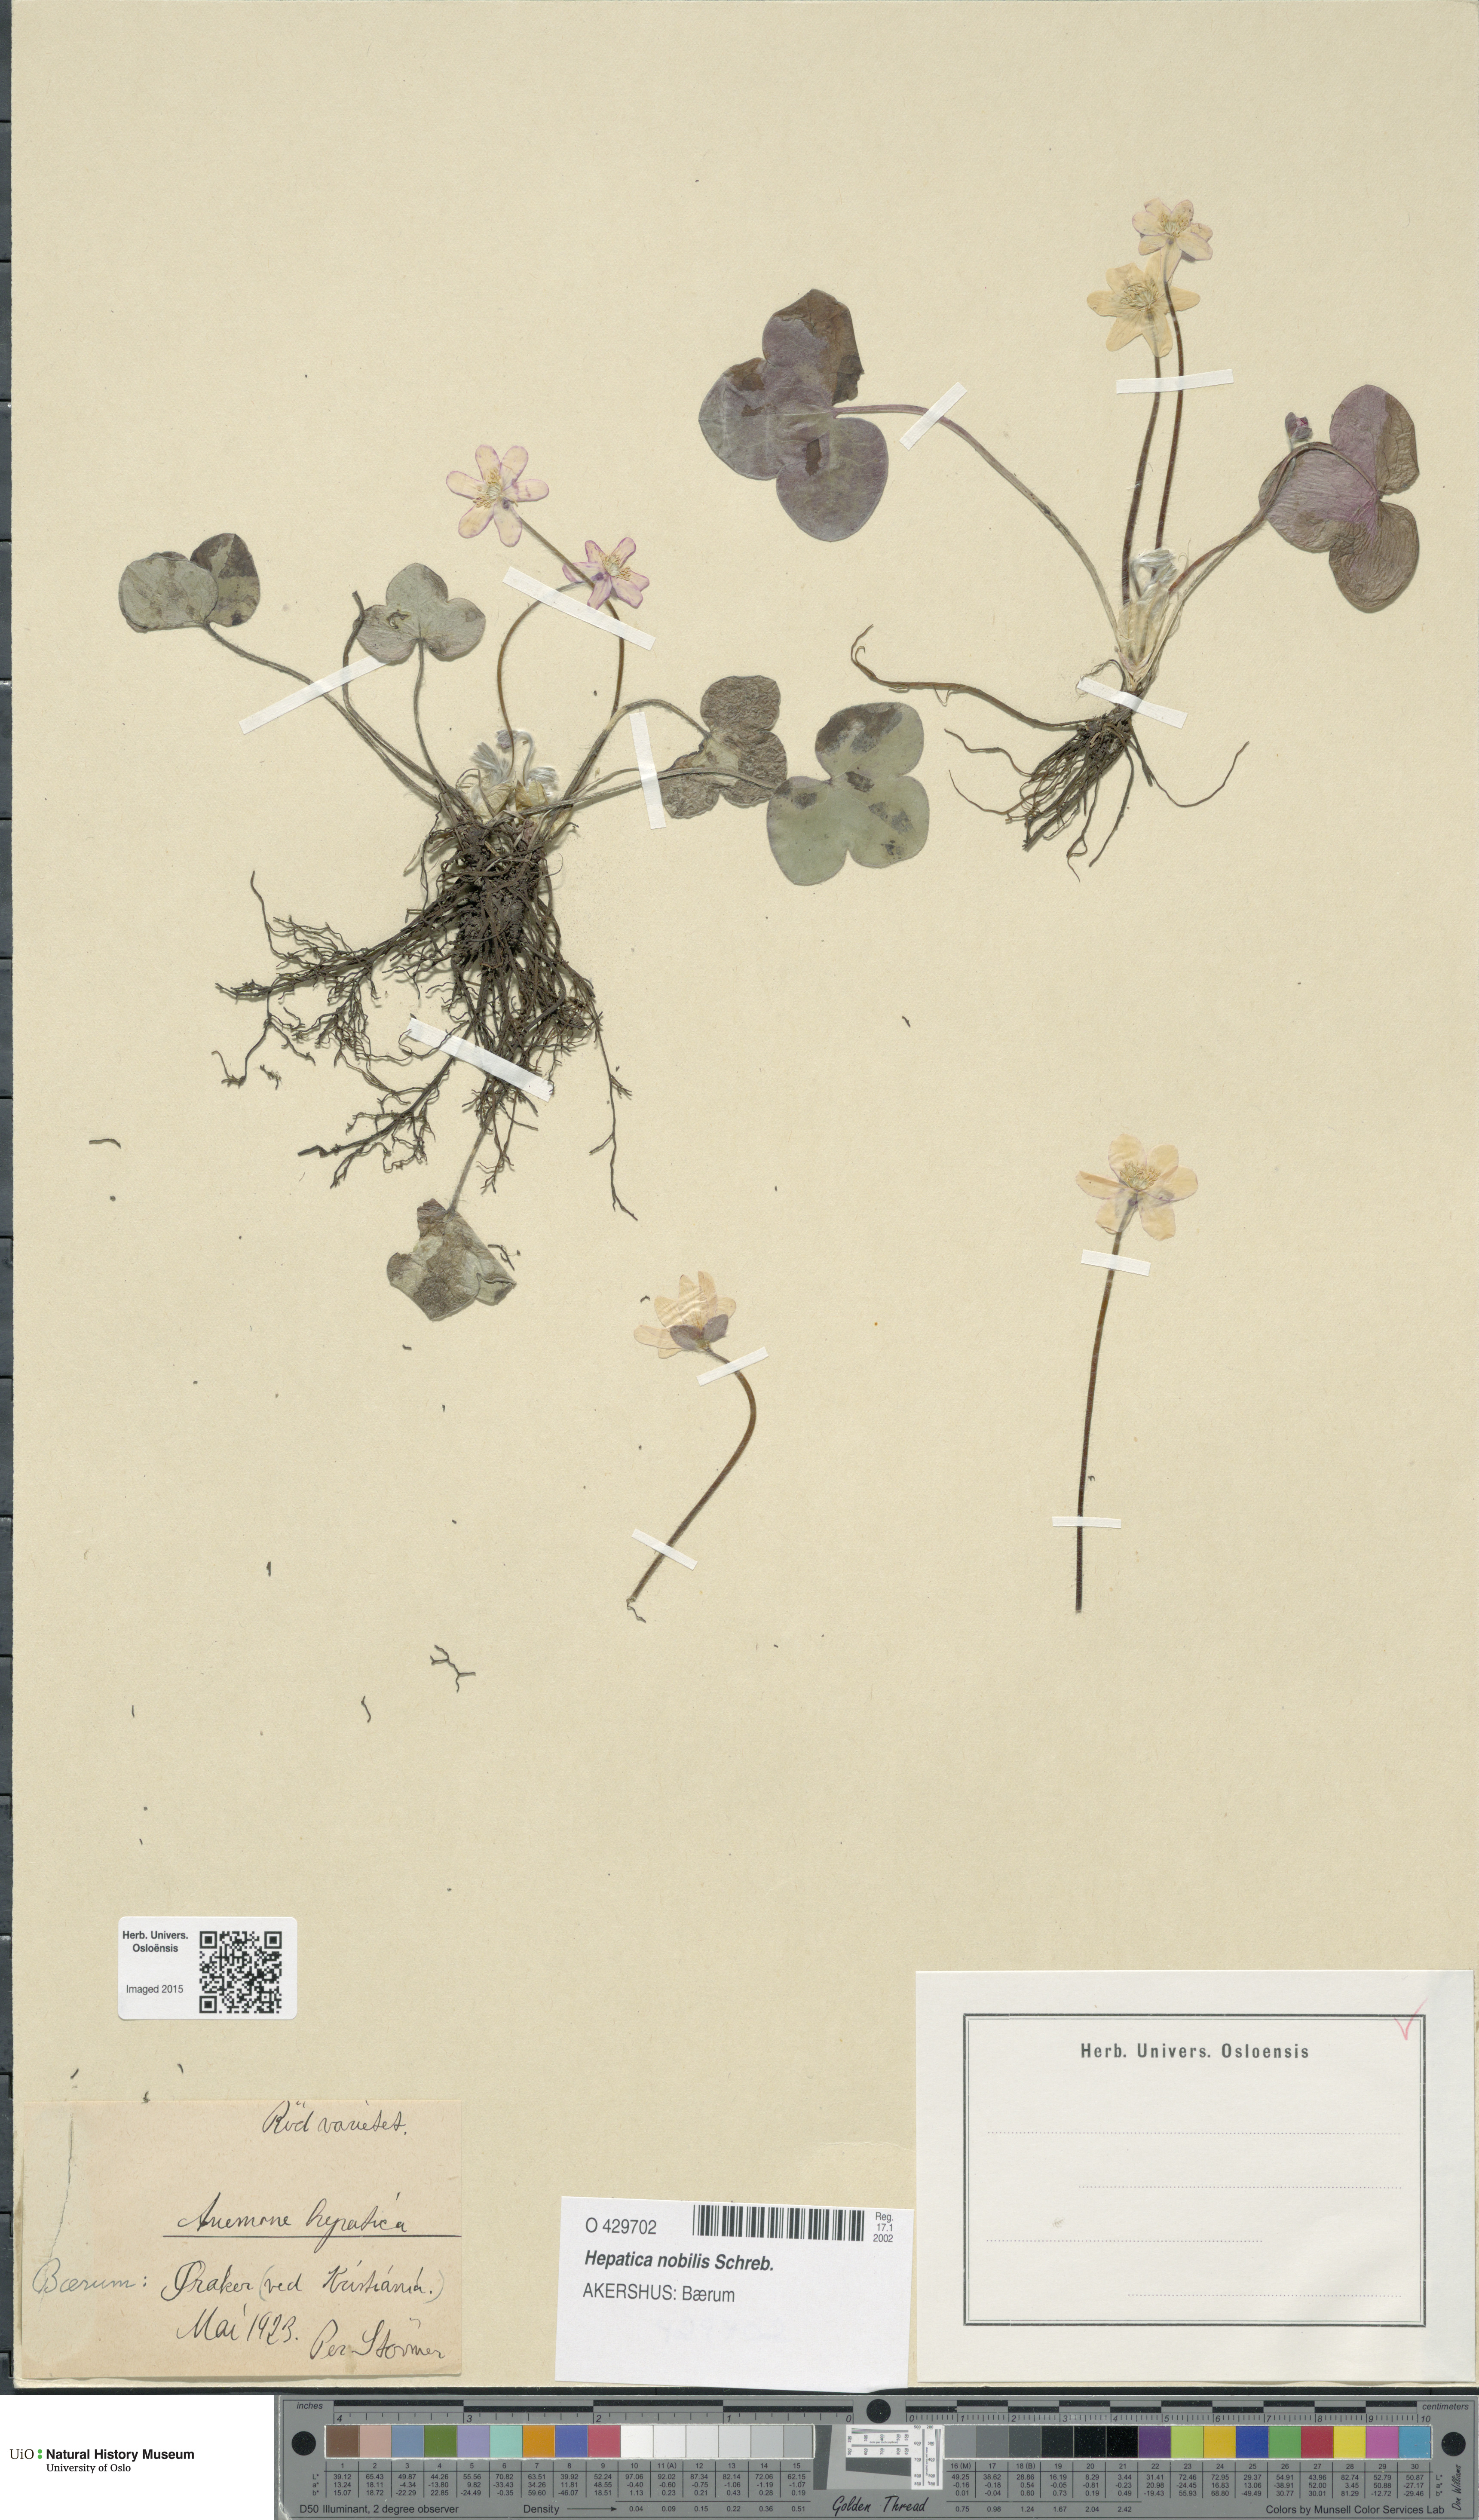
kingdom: Plantae
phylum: Tracheophyta
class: Magnoliopsida
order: Ranunculales
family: Ranunculaceae
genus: Hepatica
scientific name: Hepatica nobilis
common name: Liverleaf
